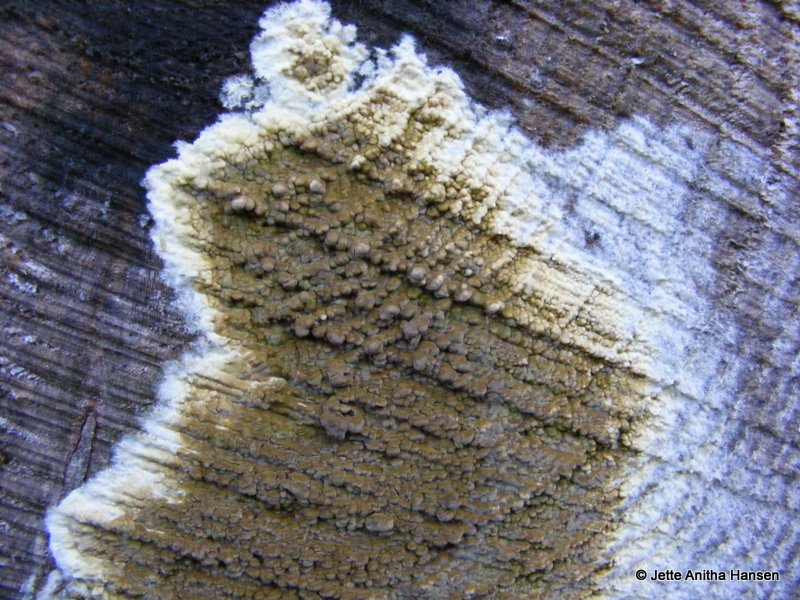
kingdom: Fungi
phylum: Basidiomycota
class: Agaricomycetes
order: Boletales
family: Coniophoraceae
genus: Coniophora
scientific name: Coniophora puteana
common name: gul tømmersvamp
